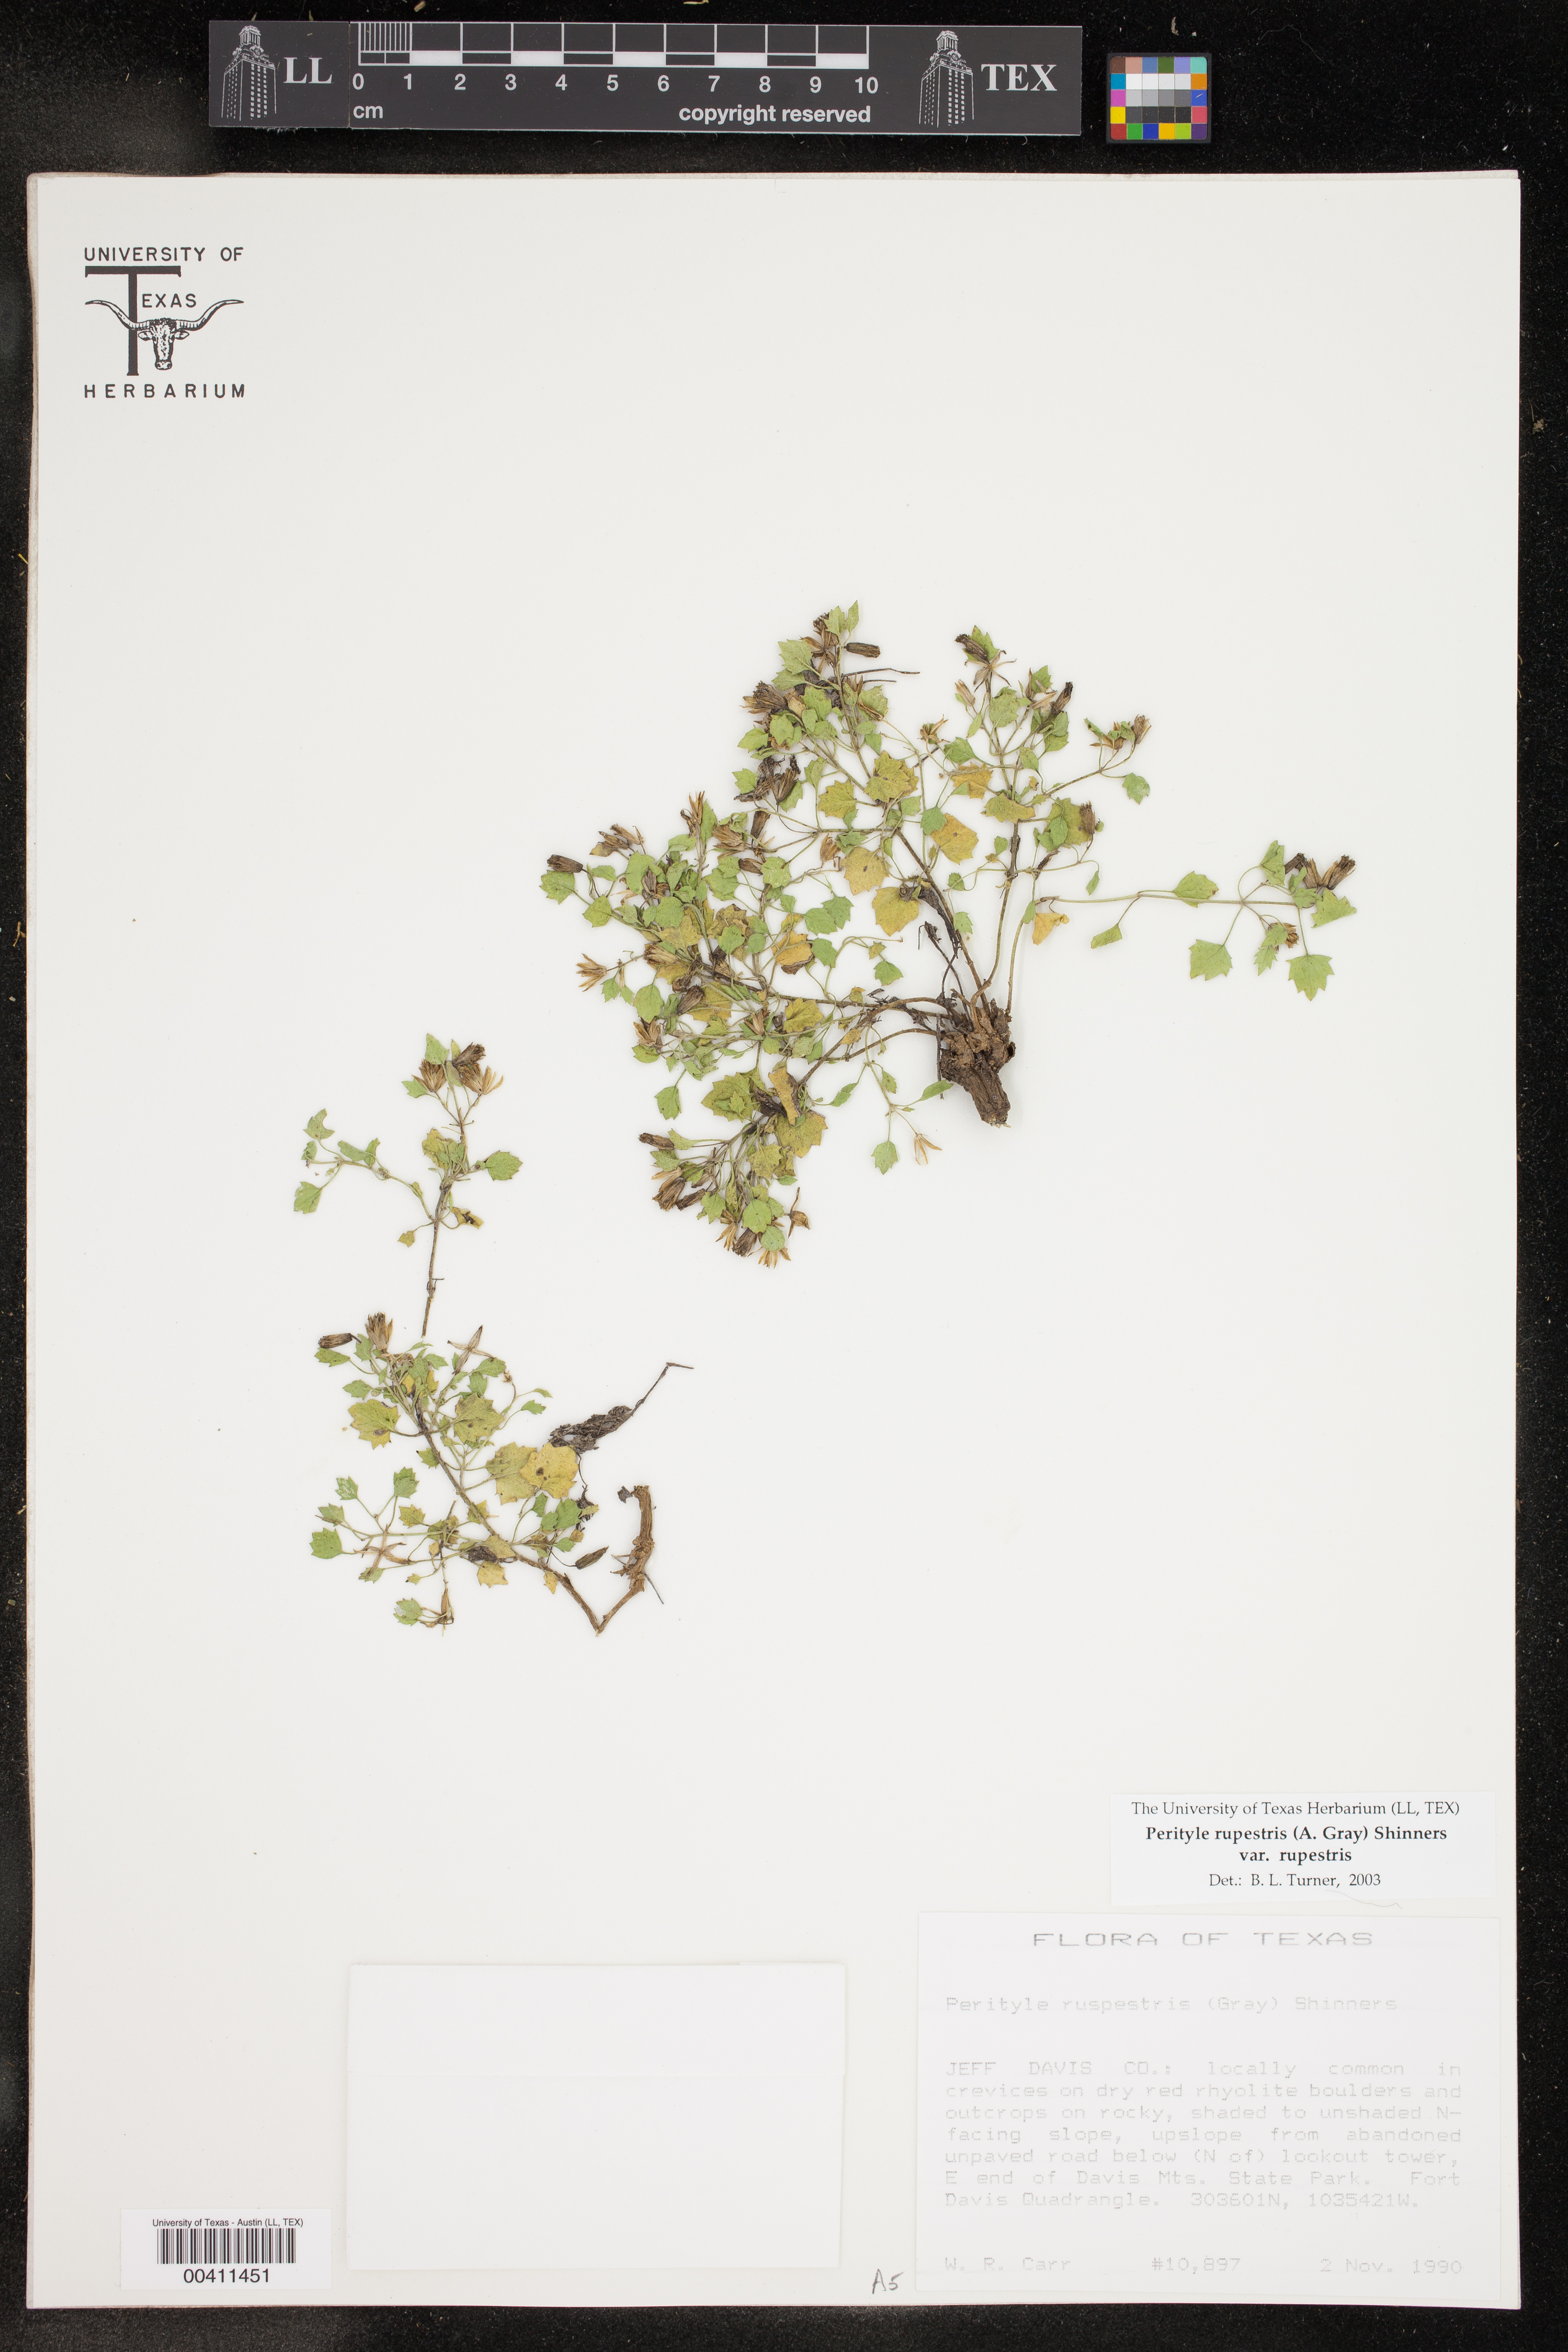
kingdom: Plantae
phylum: Tracheophyta
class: Magnoliopsida
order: Asterales
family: Asteraceae
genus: Laphamia
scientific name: Laphamia rupestris
